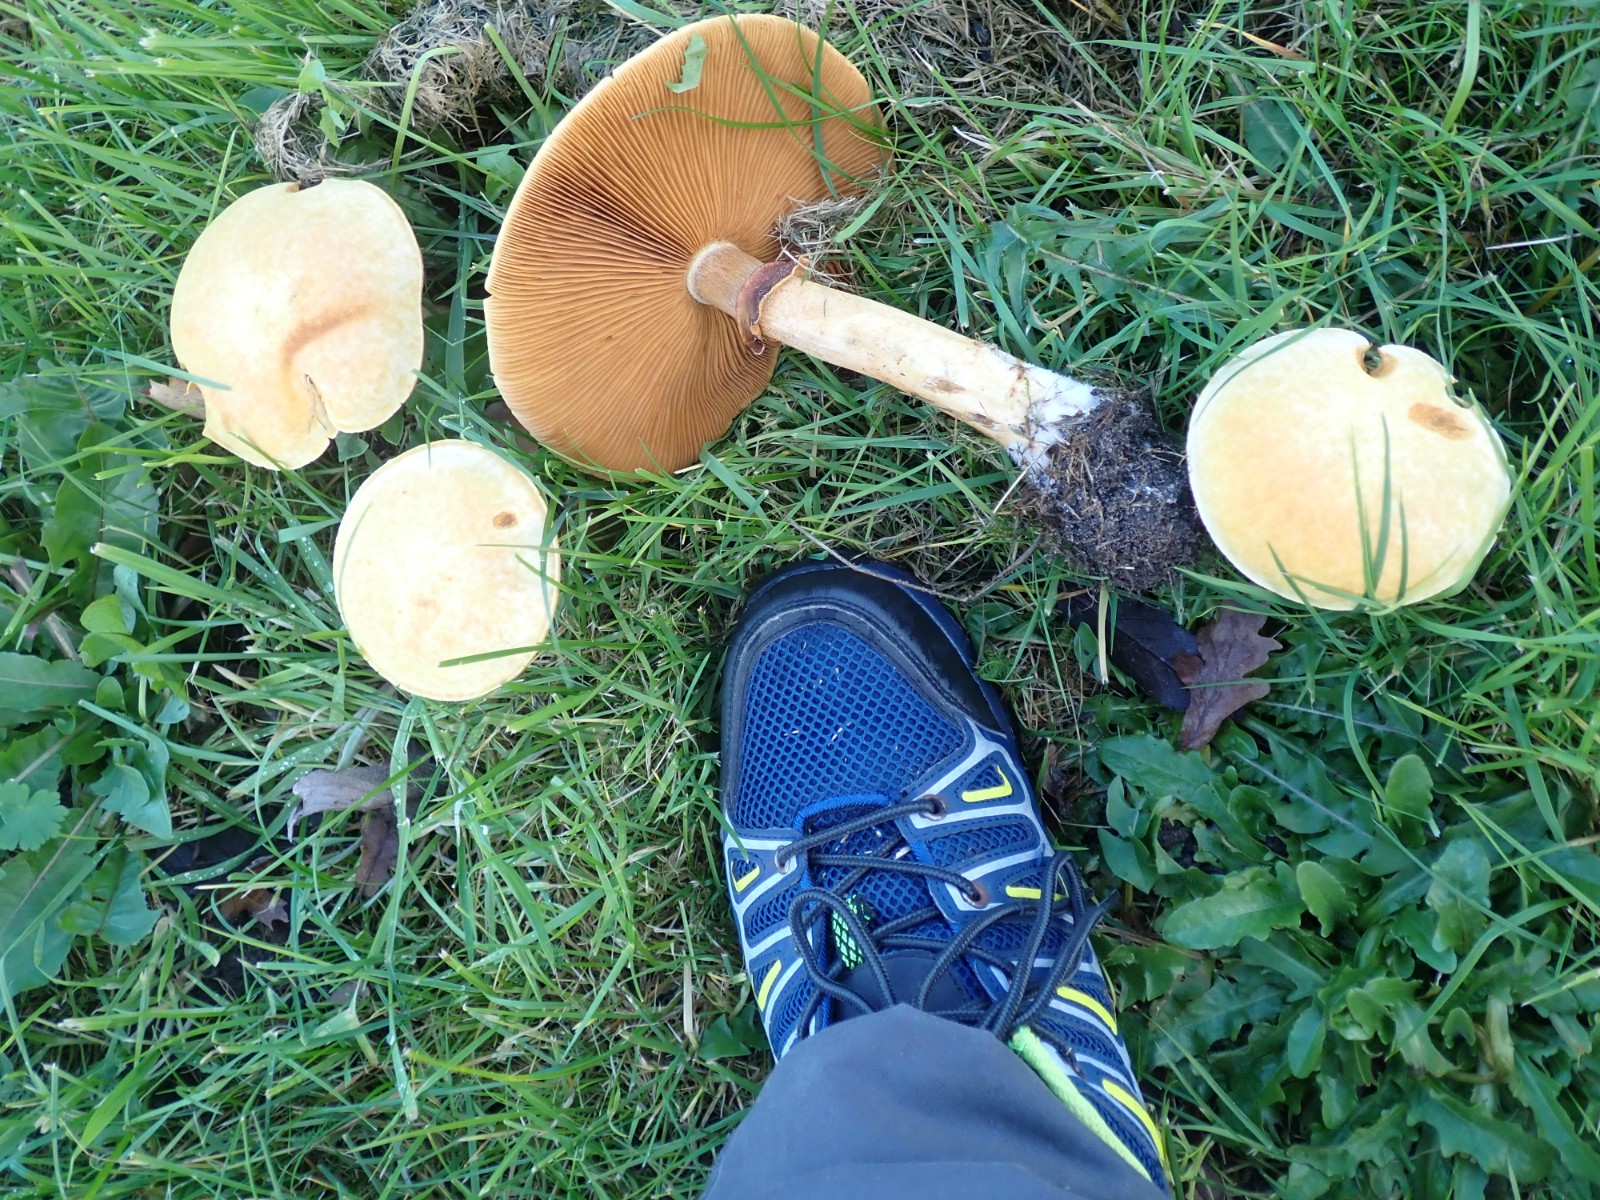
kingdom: Fungi
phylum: Basidiomycota
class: Agaricomycetes
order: Agaricales
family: Tricholomataceae
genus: Phaeolepiota
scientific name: Phaeolepiota aurea
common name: gyldenhat
